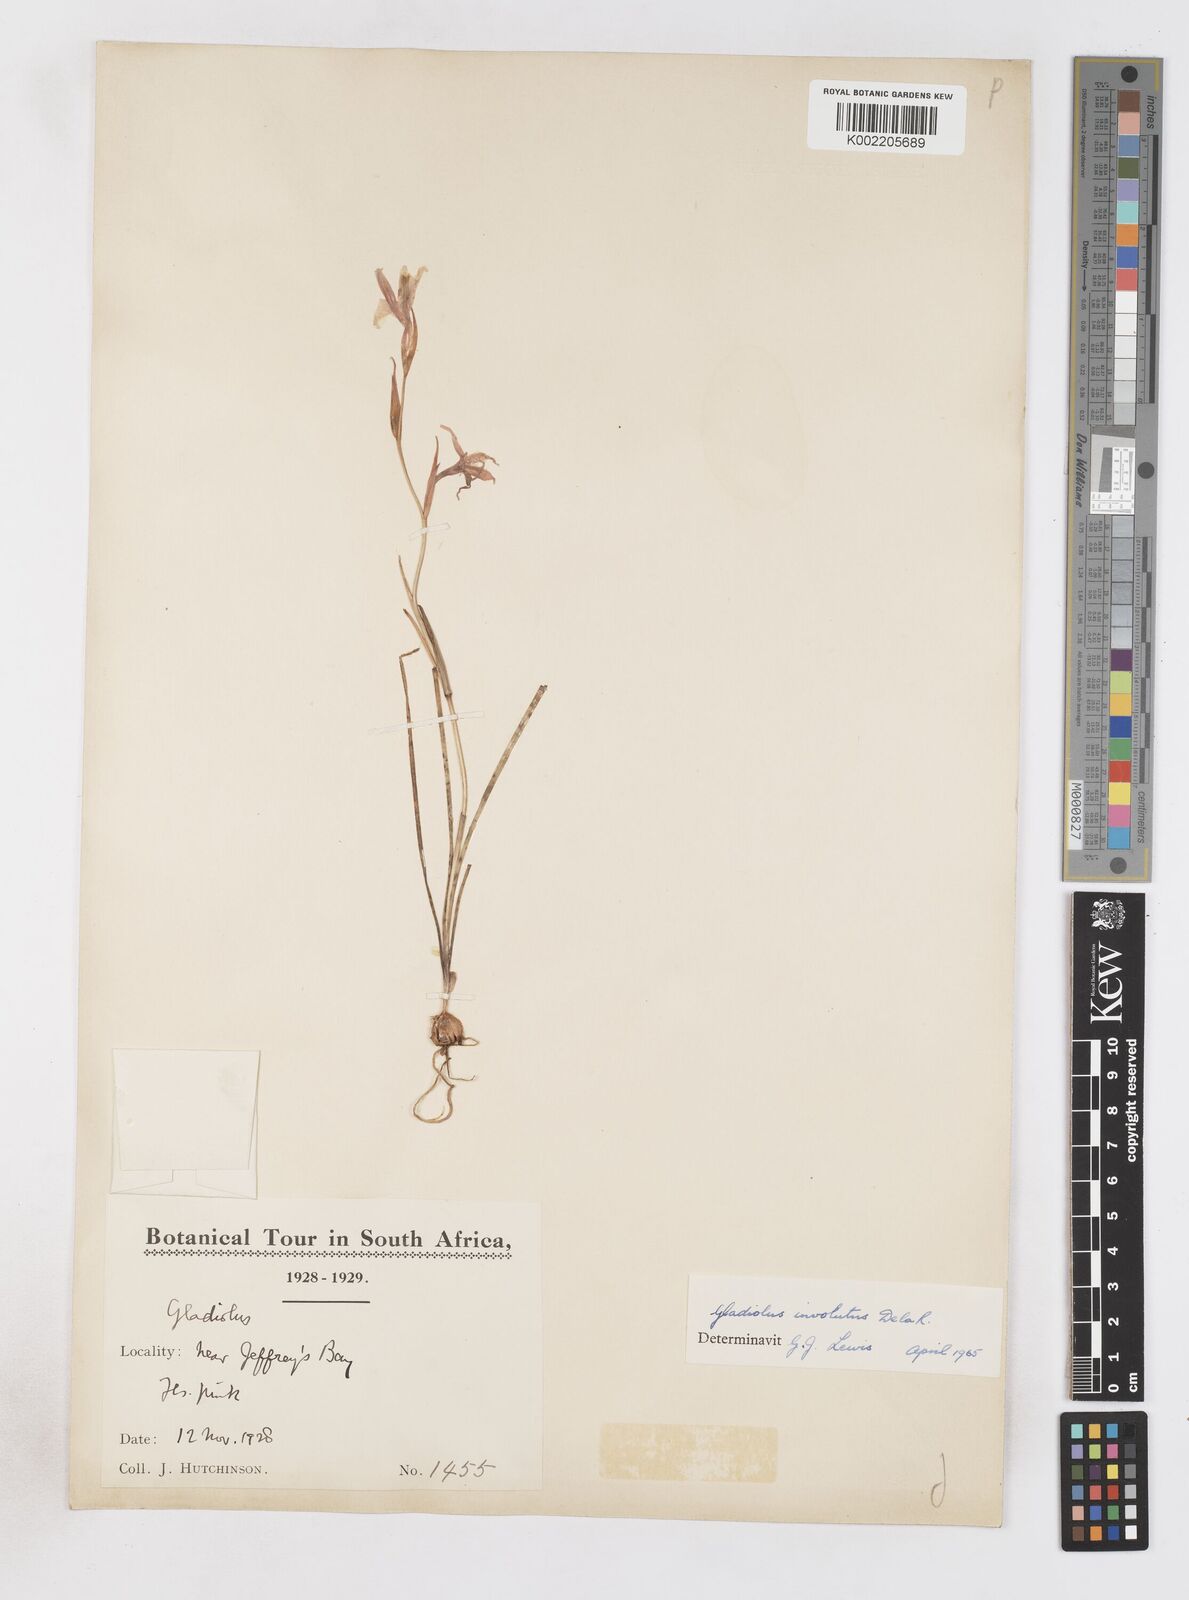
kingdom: Plantae
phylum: Tracheophyta
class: Liliopsida
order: Asparagales
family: Iridaceae
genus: Gladiolus
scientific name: Gladiolus involutus
